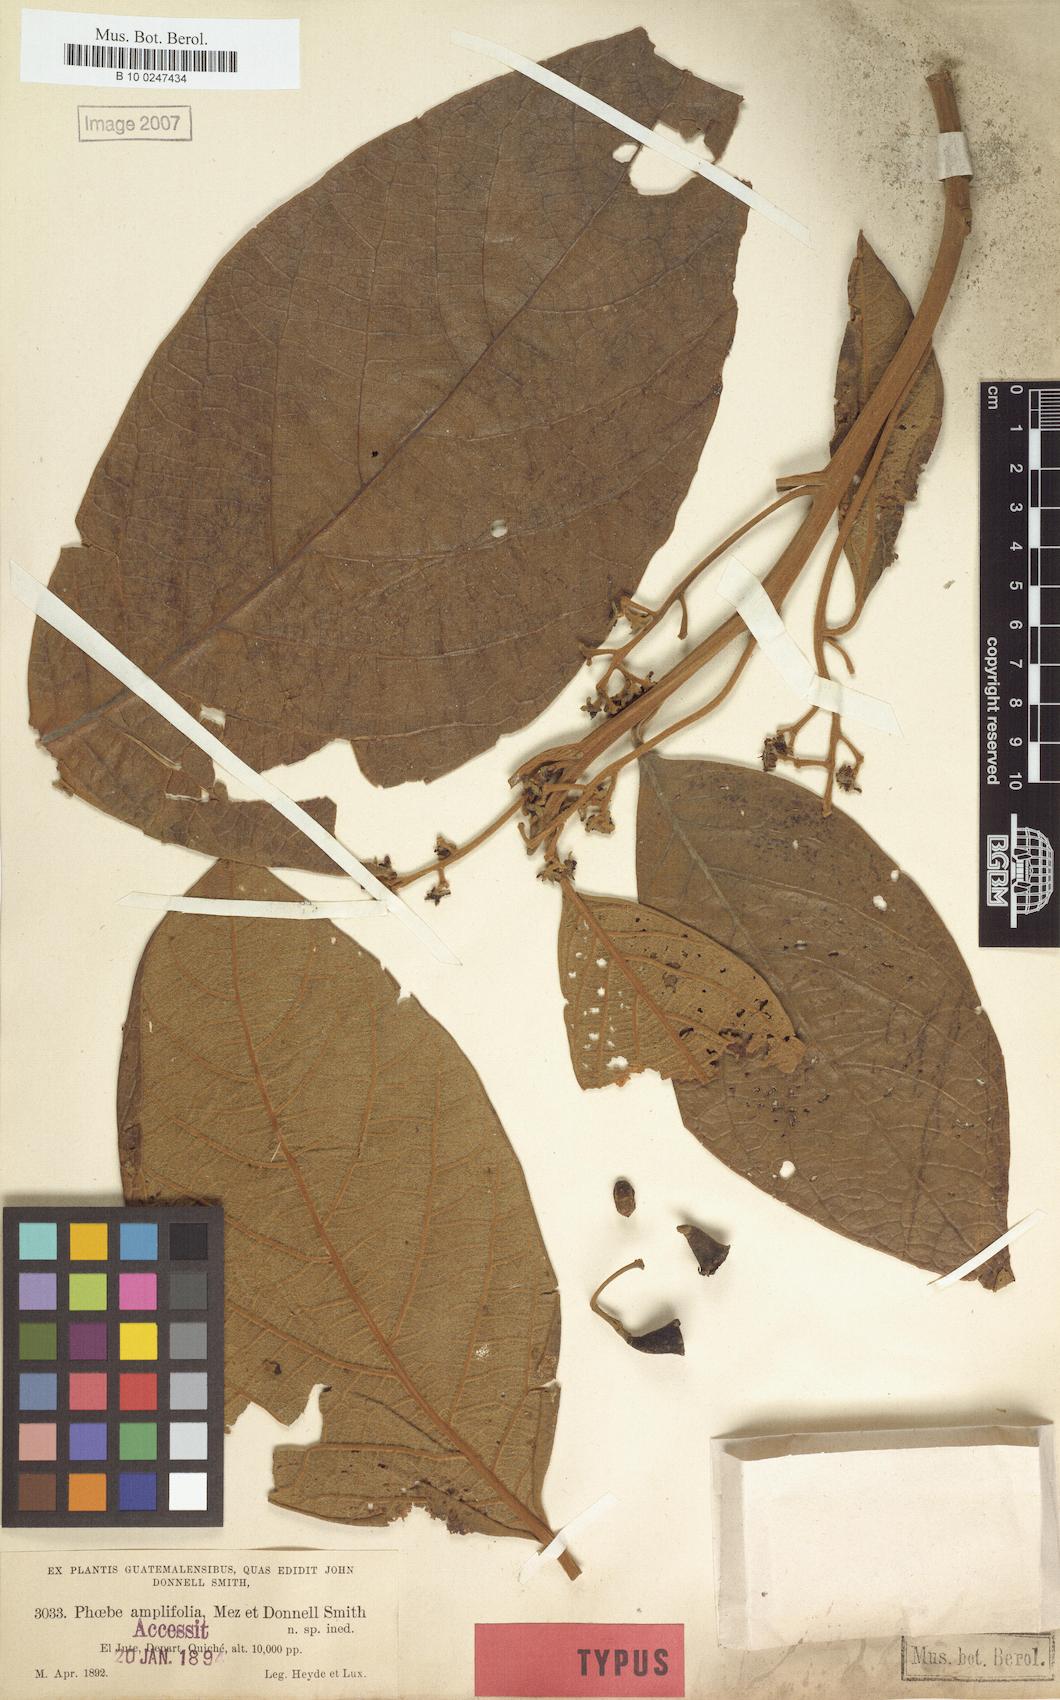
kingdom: Plantae
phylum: Tracheophyta
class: Magnoliopsida
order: Laurales
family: Lauraceae
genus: Ocotea
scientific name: Ocotea amplifolia
